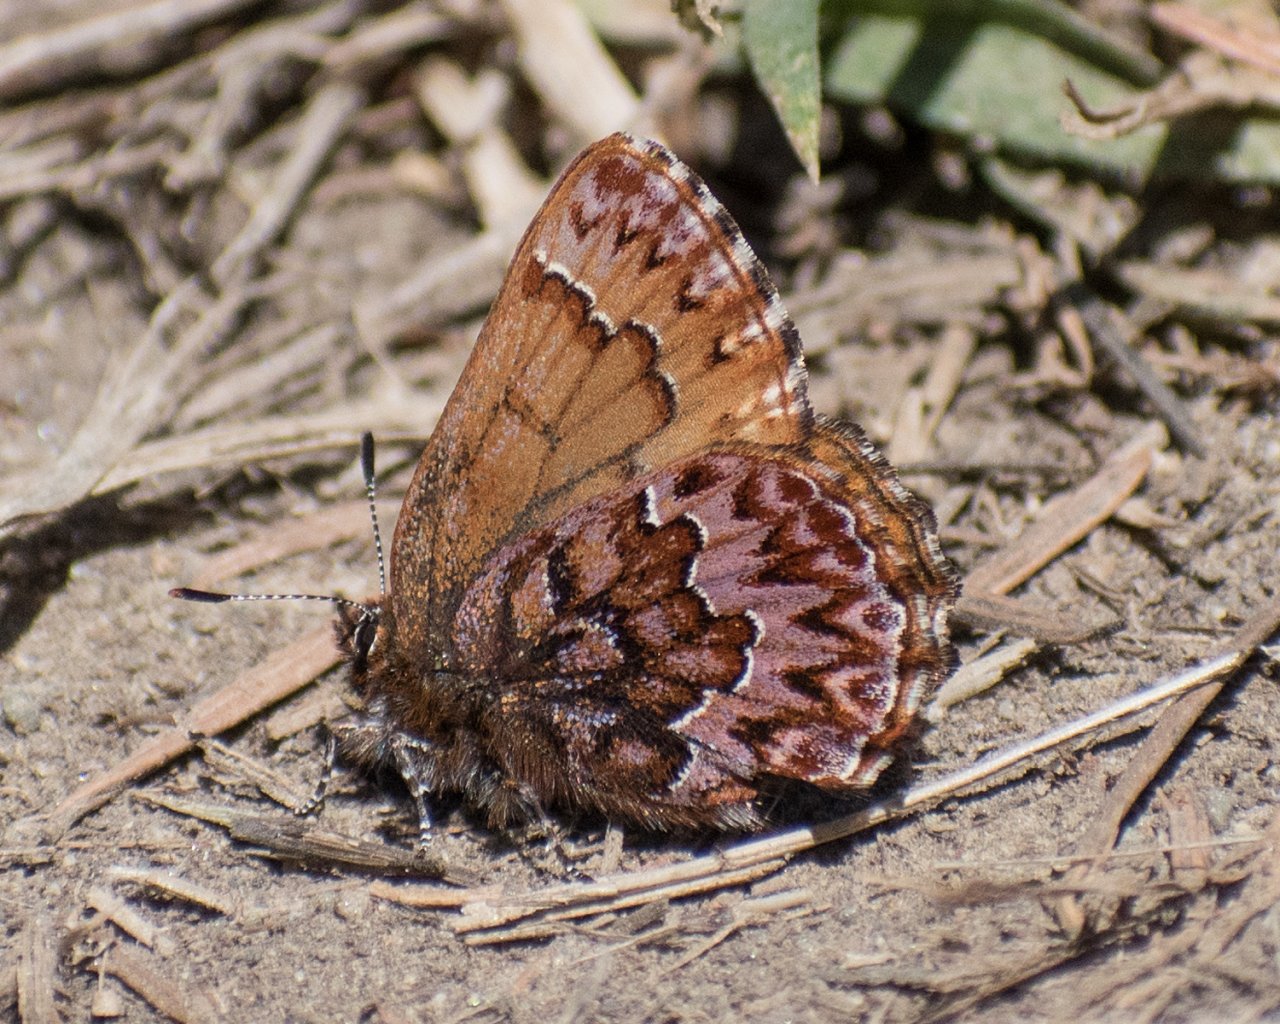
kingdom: Animalia
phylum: Arthropoda
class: Insecta
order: Lepidoptera
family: Lycaenidae
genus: Incisalia
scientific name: Incisalia eryphon
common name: Western Pine Elfin
